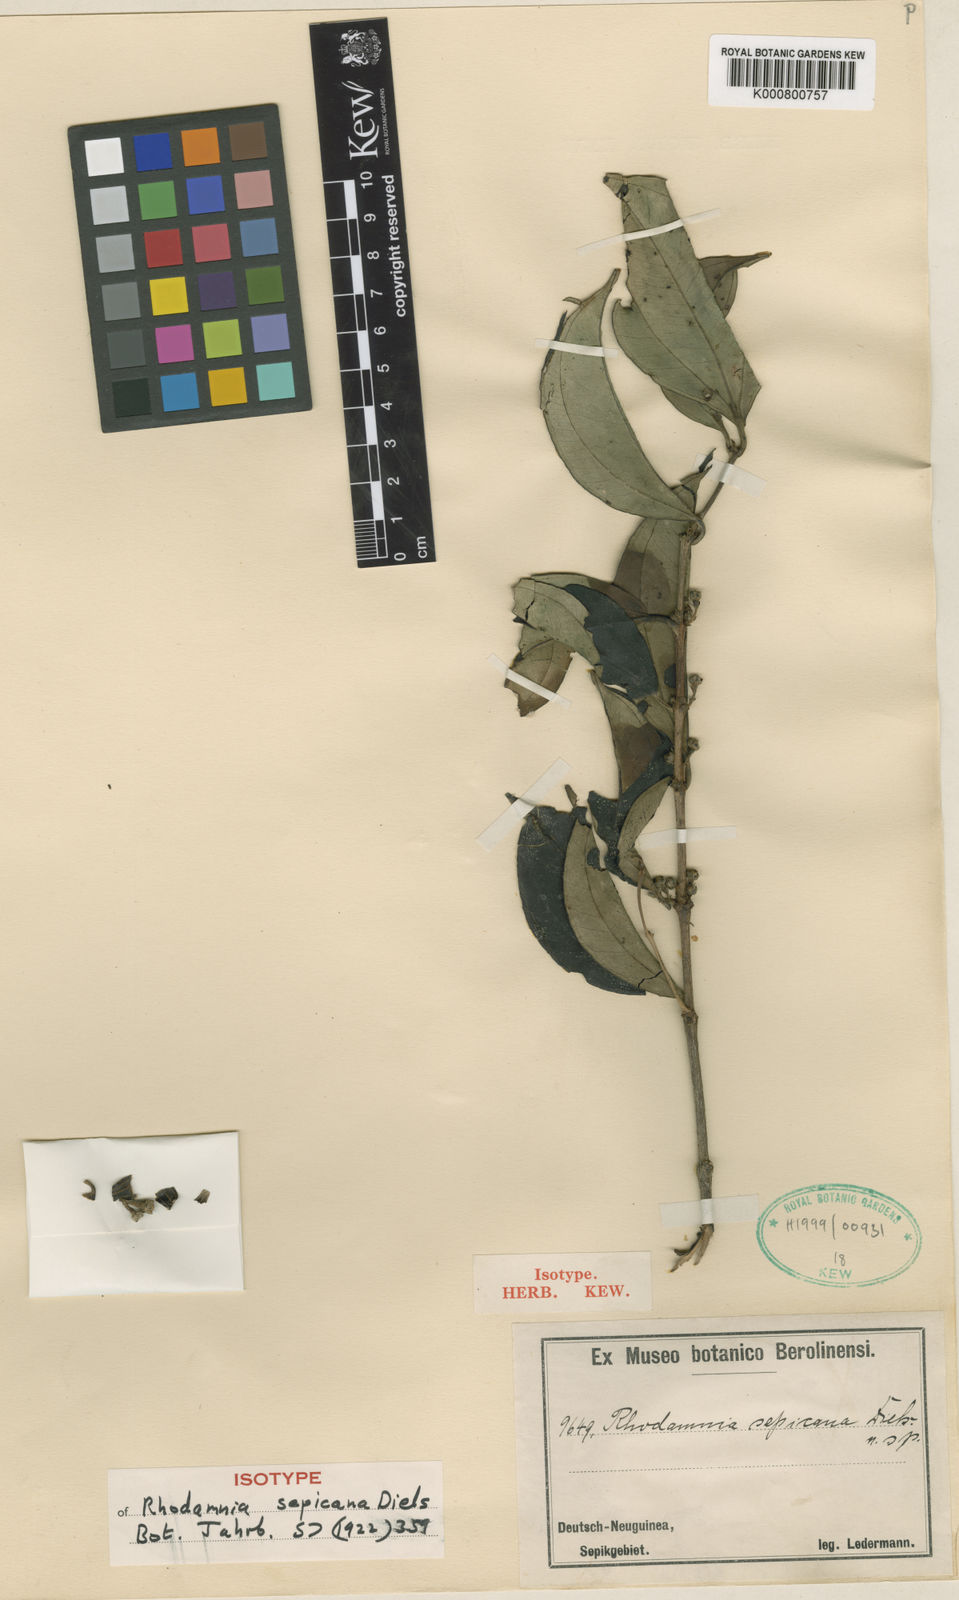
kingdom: Plantae
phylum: Tracheophyta
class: Magnoliopsida
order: Myrtales
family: Myrtaceae
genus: Rhodamnia
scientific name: Rhodamnia sepicana
